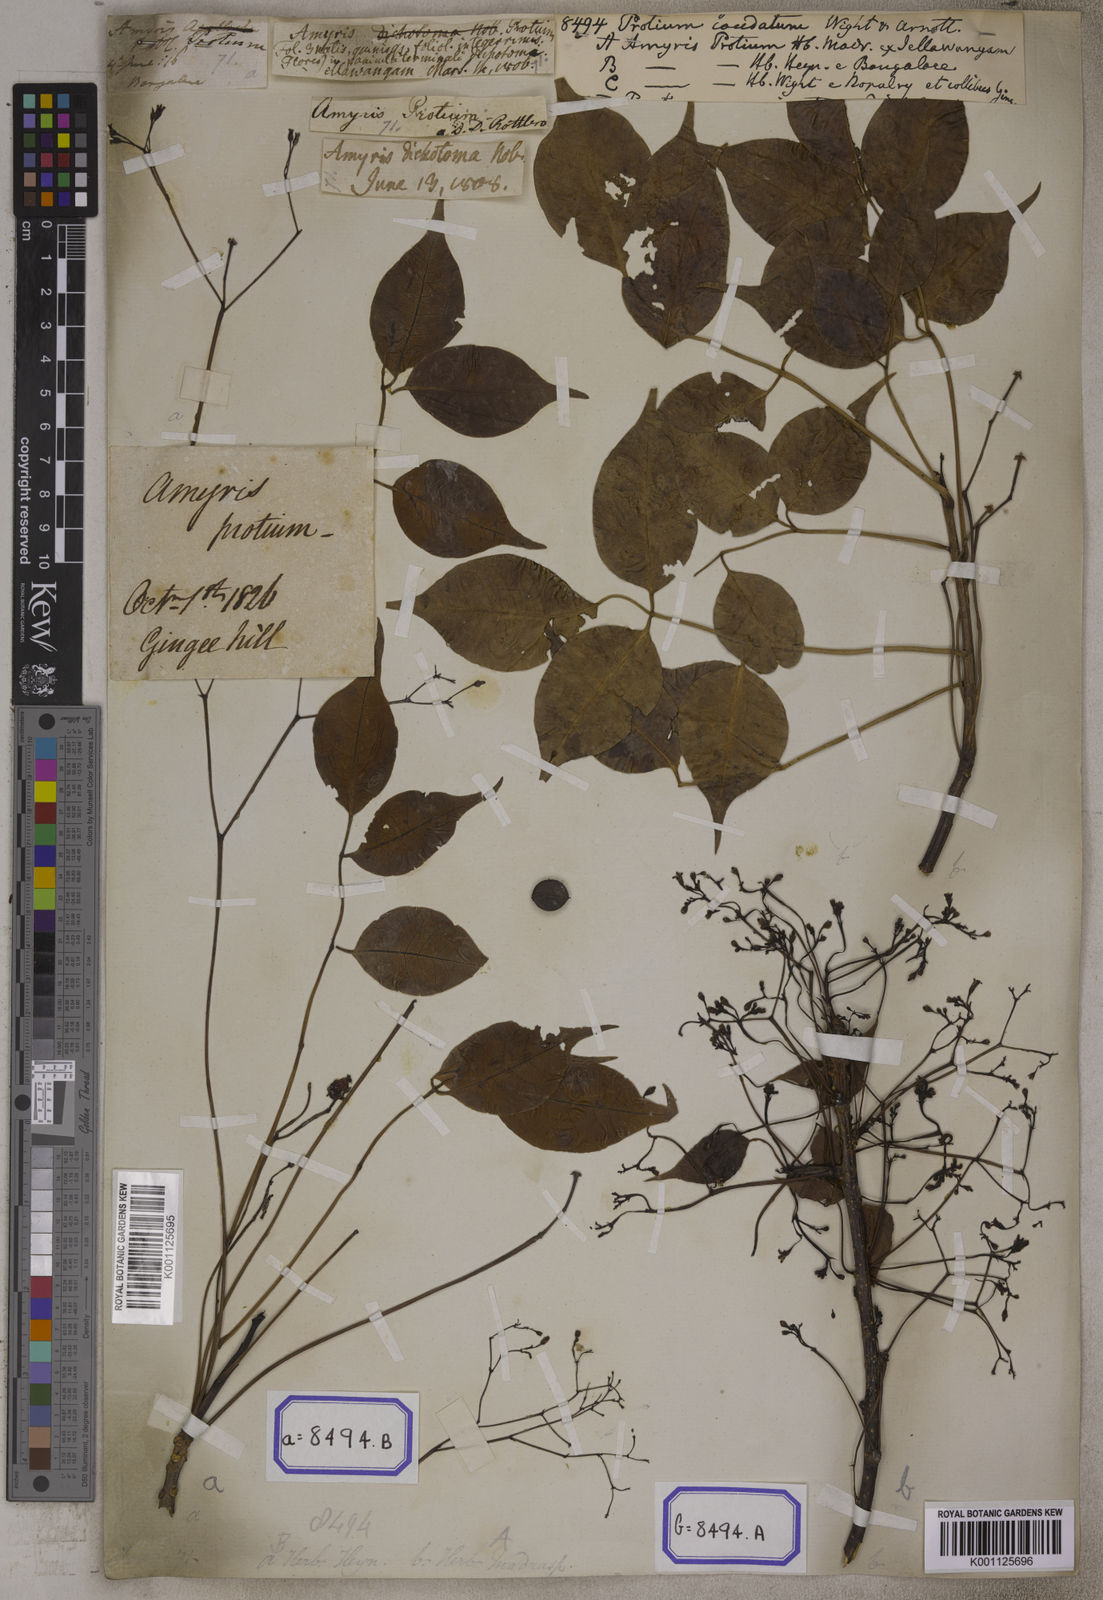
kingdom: Plantae
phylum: Tracheophyta
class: Magnoliopsida
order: Sapindales
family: Burseraceae
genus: Commiphora
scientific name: Commiphora caudata
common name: Hill-mango
